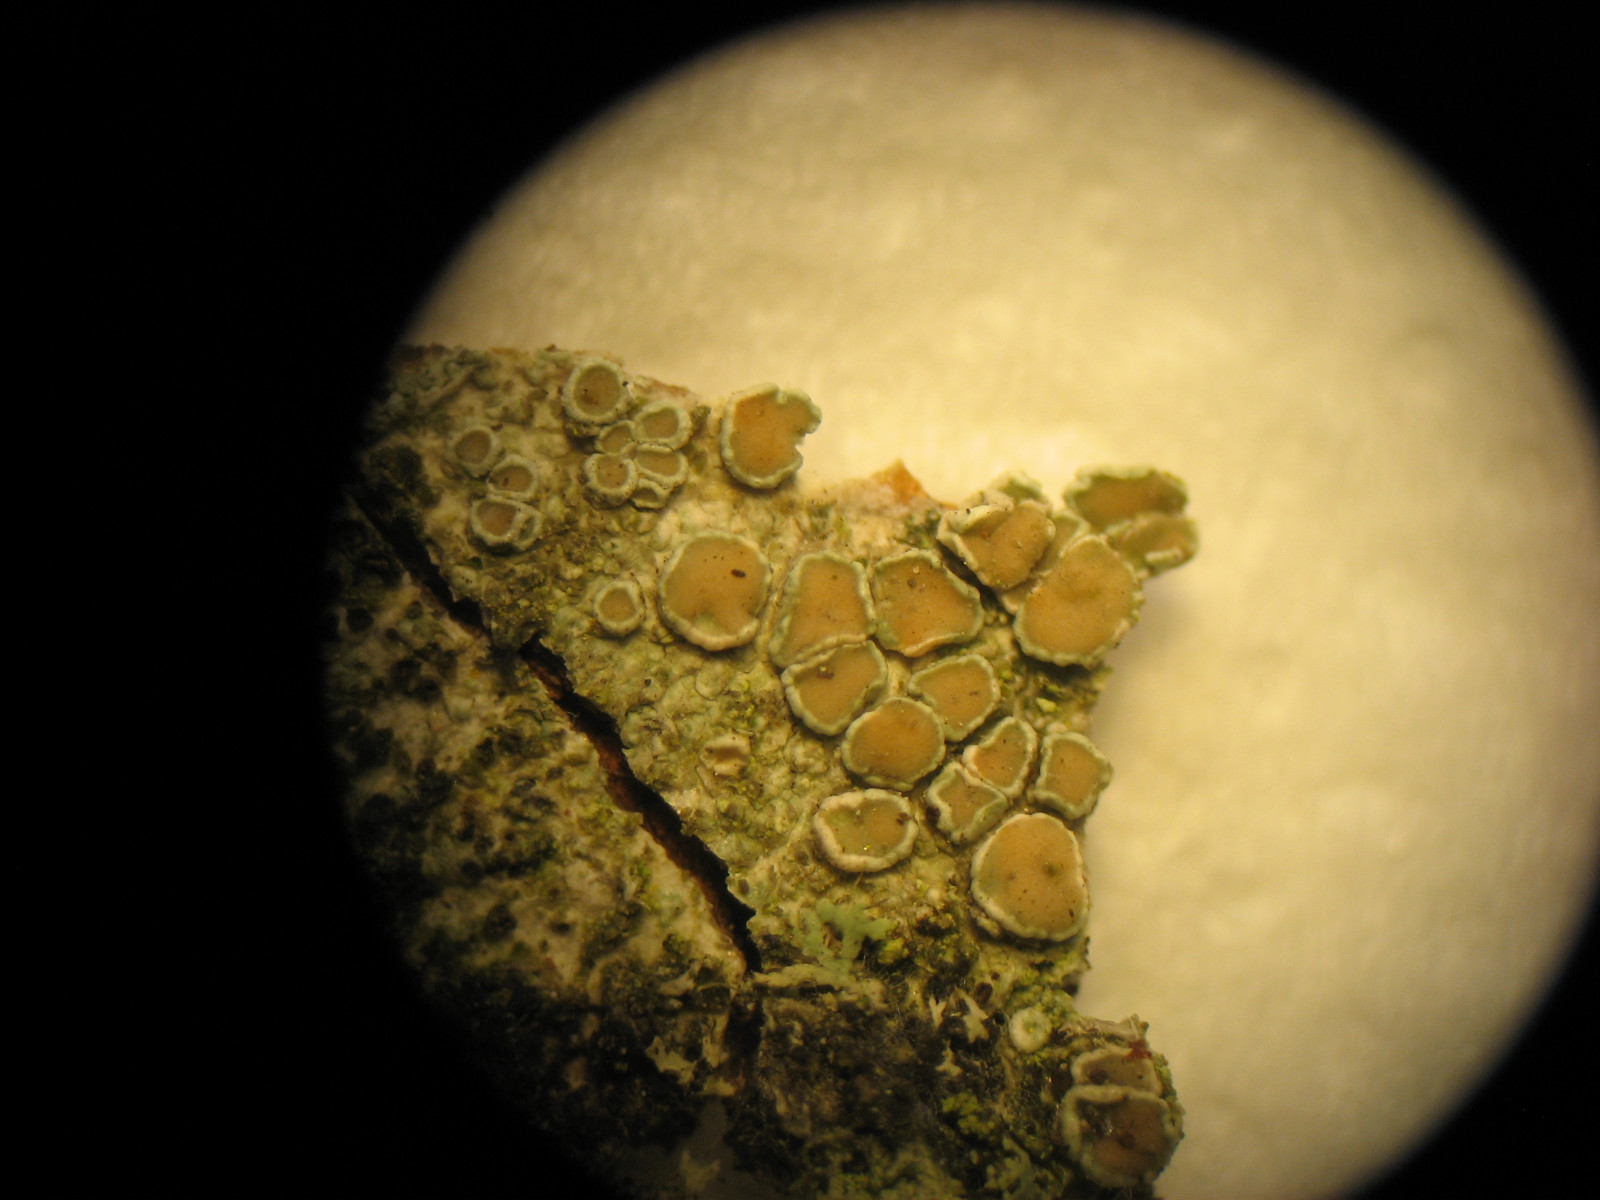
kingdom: Fungi
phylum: Ascomycota
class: Lecanoromycetes
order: Lecanorales
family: Lecanoraceae
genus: Lecanora
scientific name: Lecanora chlarotera
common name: brun kantskivelav
